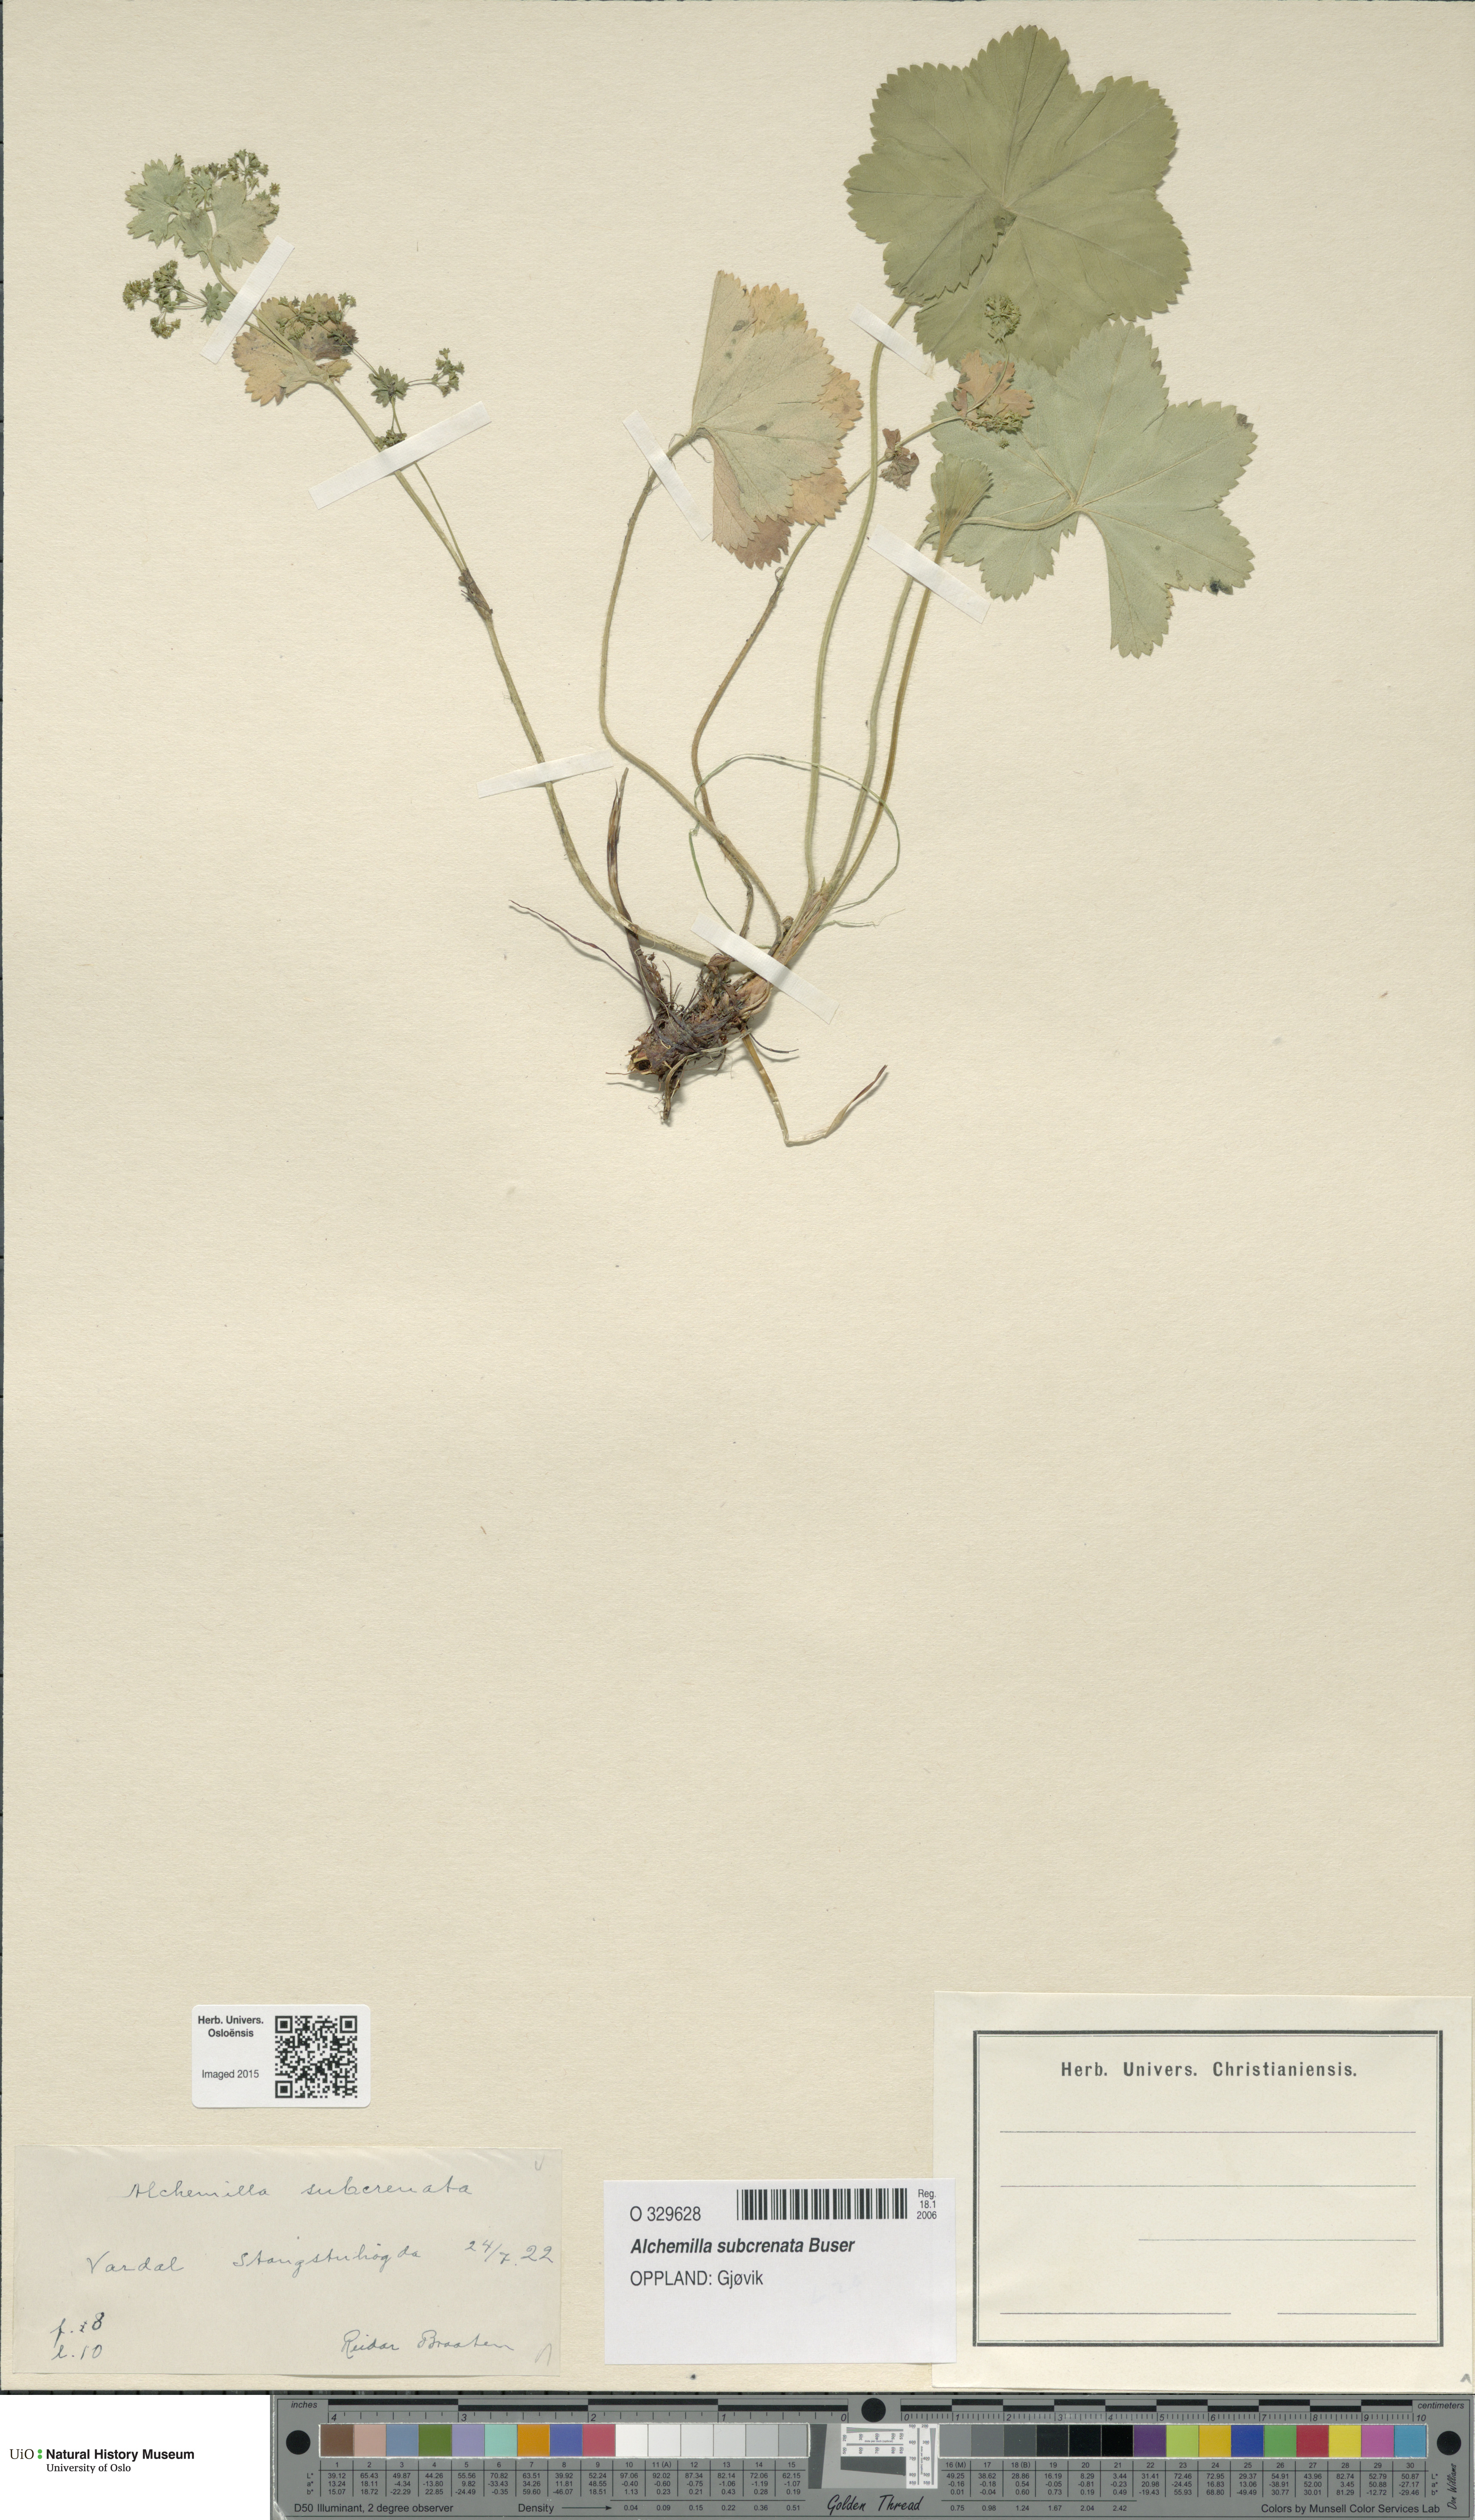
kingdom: Plantae
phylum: Tracheophyta
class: Magnoliopsida
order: Rosales
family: Rosaceae
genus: Alchemilla
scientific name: Alchemilla subcrenata
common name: Broadtooth lady's mantle
